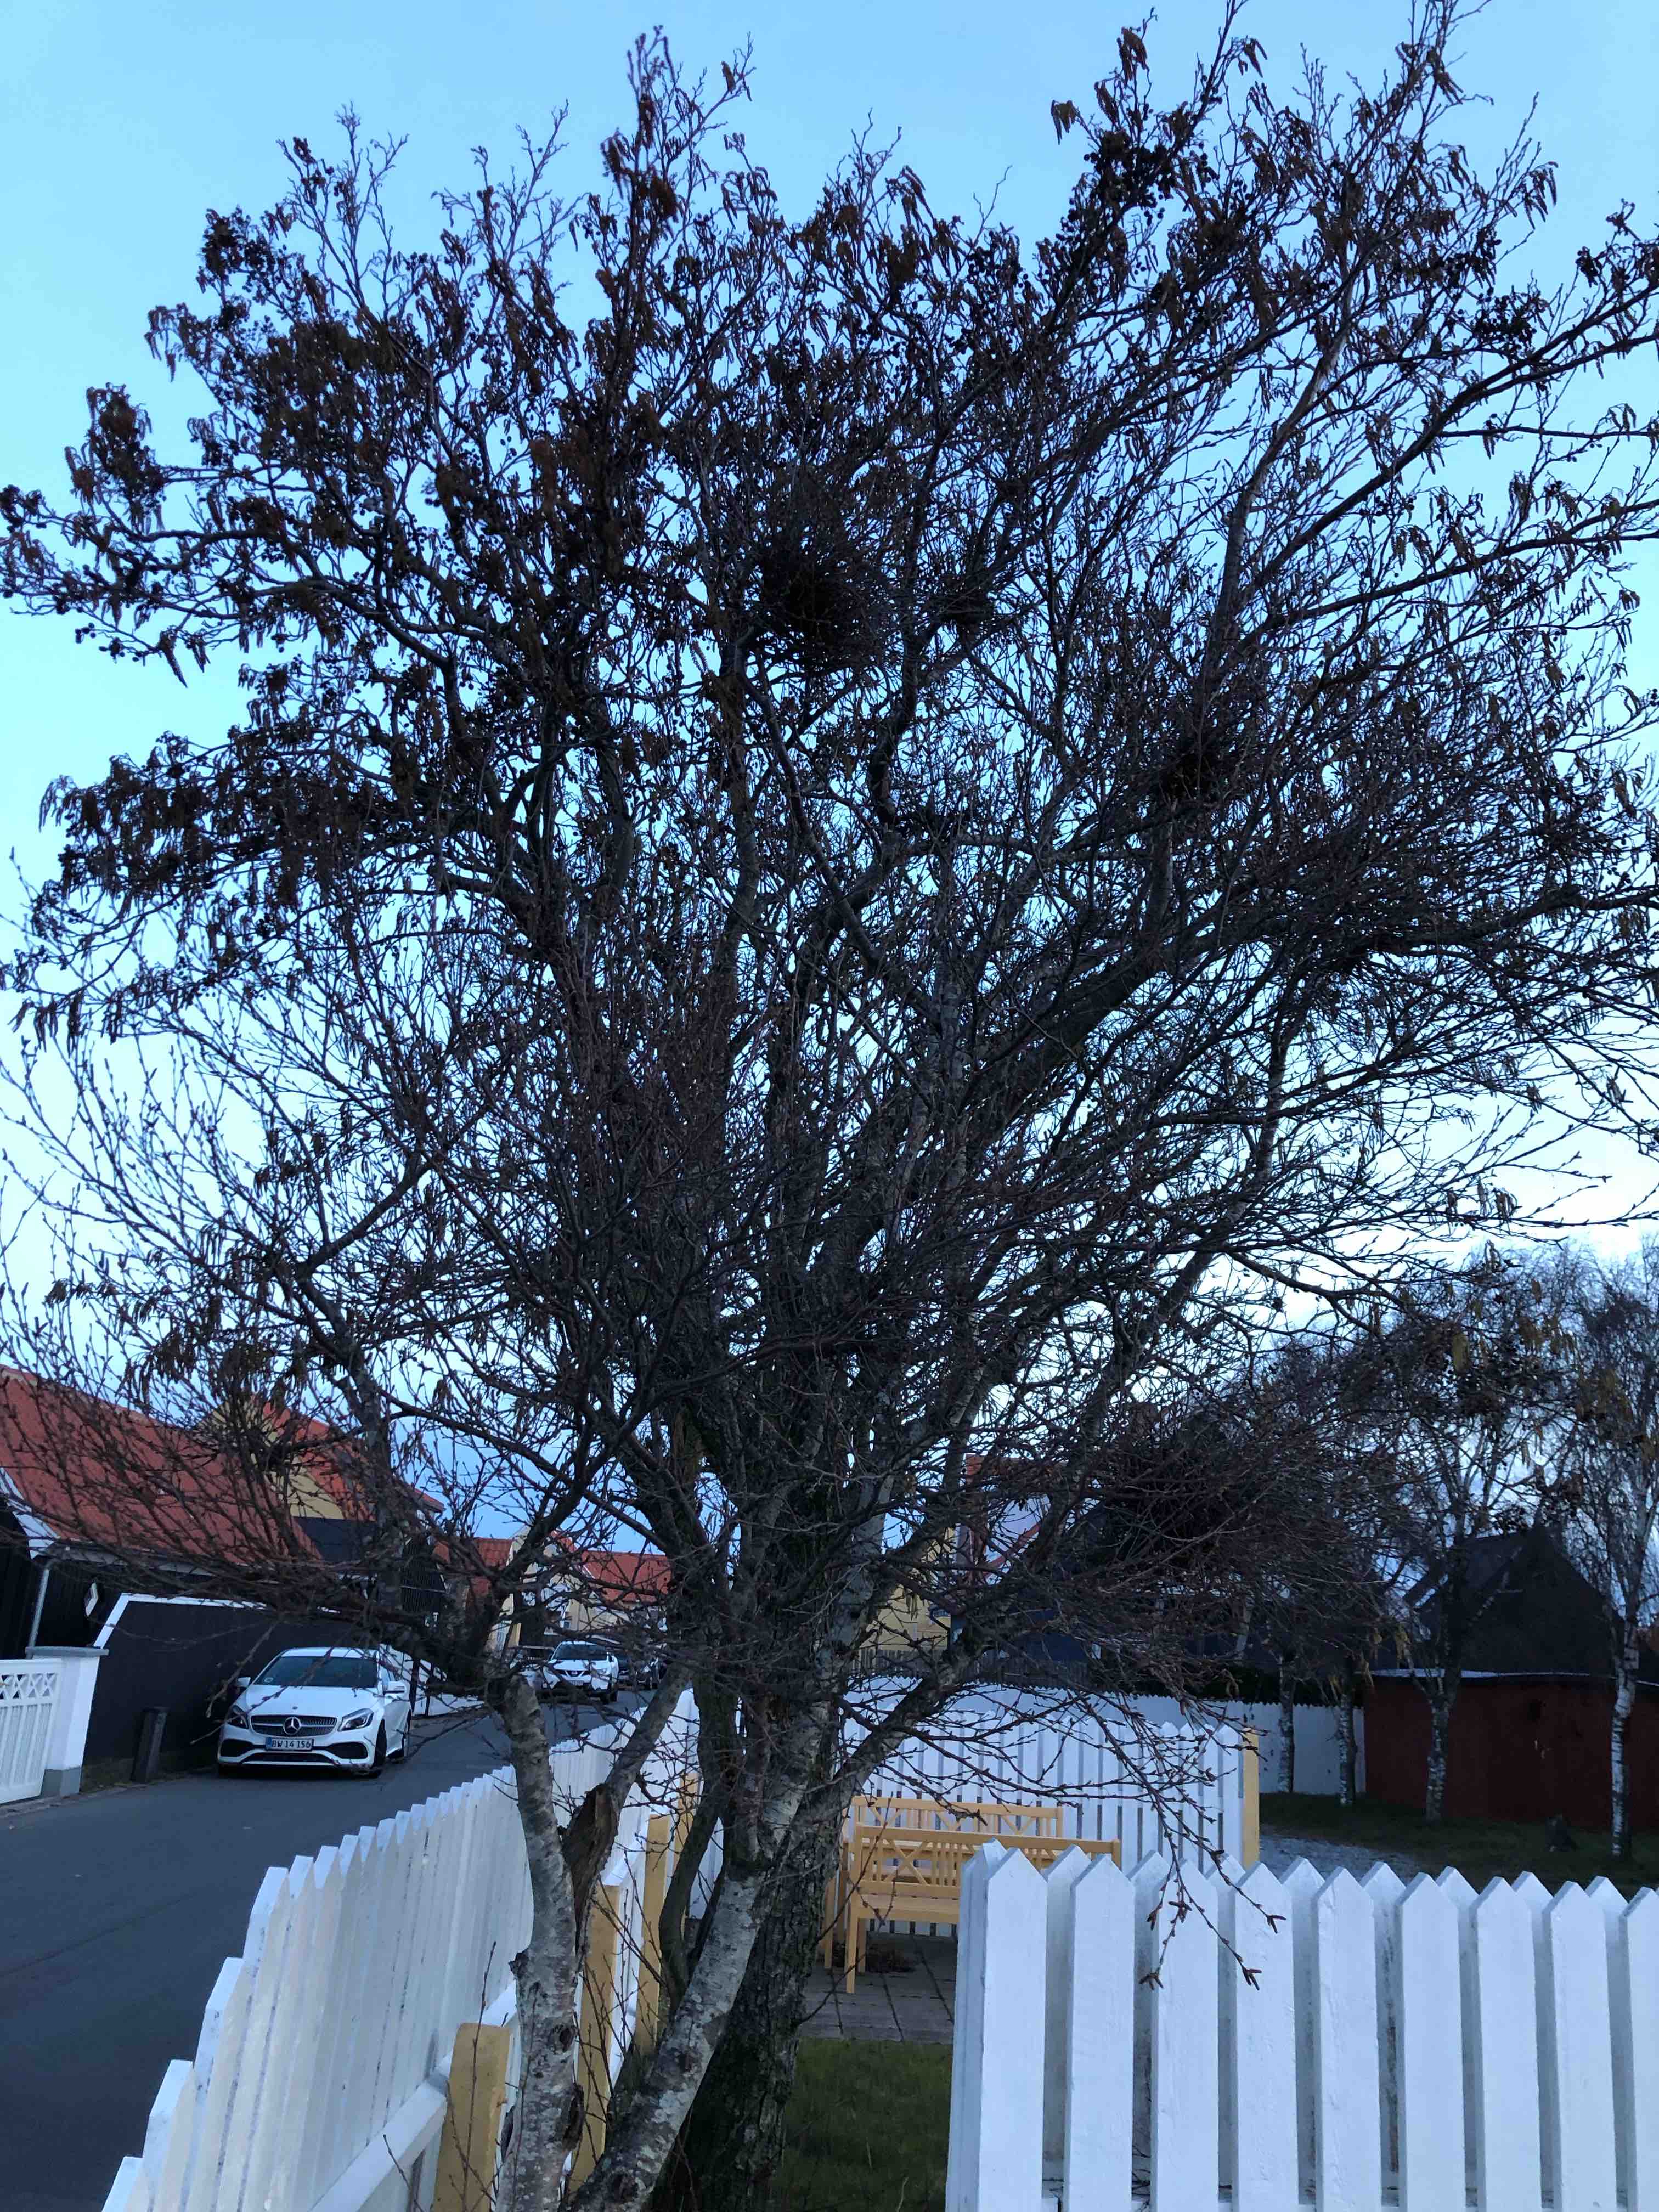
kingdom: Fungi
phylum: Ascomycota
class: Taphrinomycetes
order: Taphrinales
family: Taphrinaceae
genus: Taphrina
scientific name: Taphrina betulae
